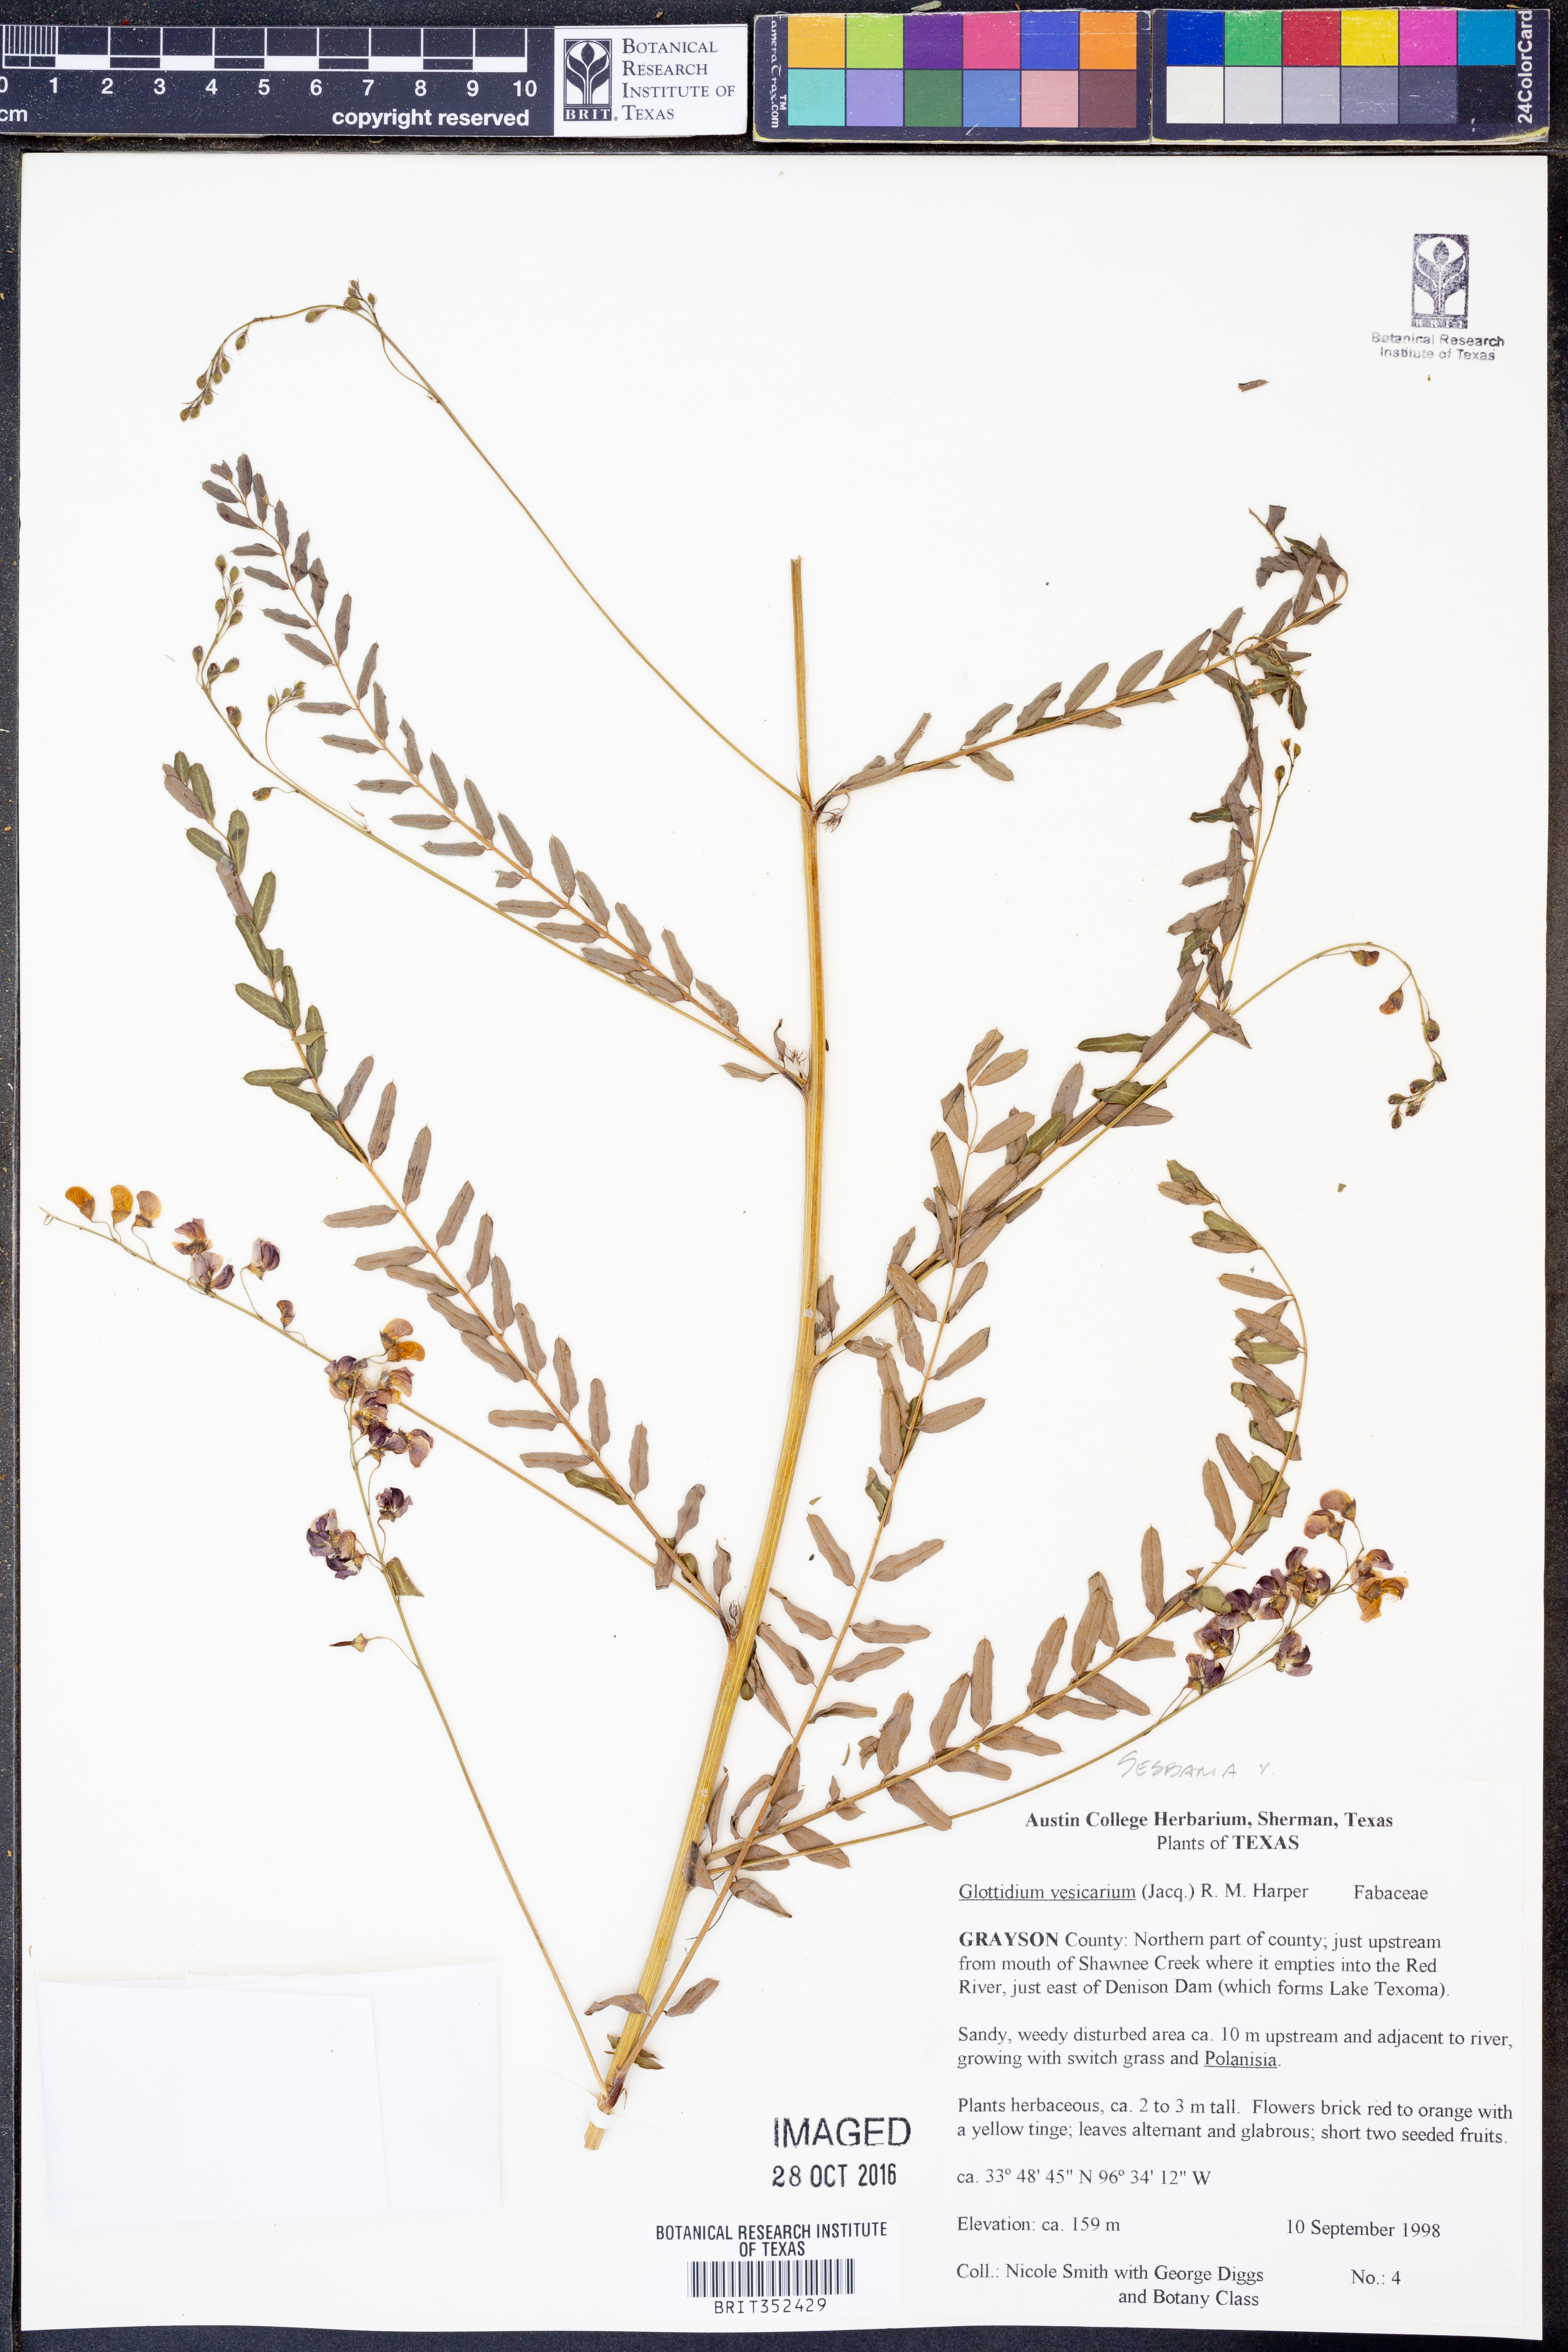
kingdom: Plantae
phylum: Tracheophyta
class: Magnoliopsida
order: Fabales
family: Fabaceae
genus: Sesbania
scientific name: Sesbania vesicaria
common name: Bagpod
